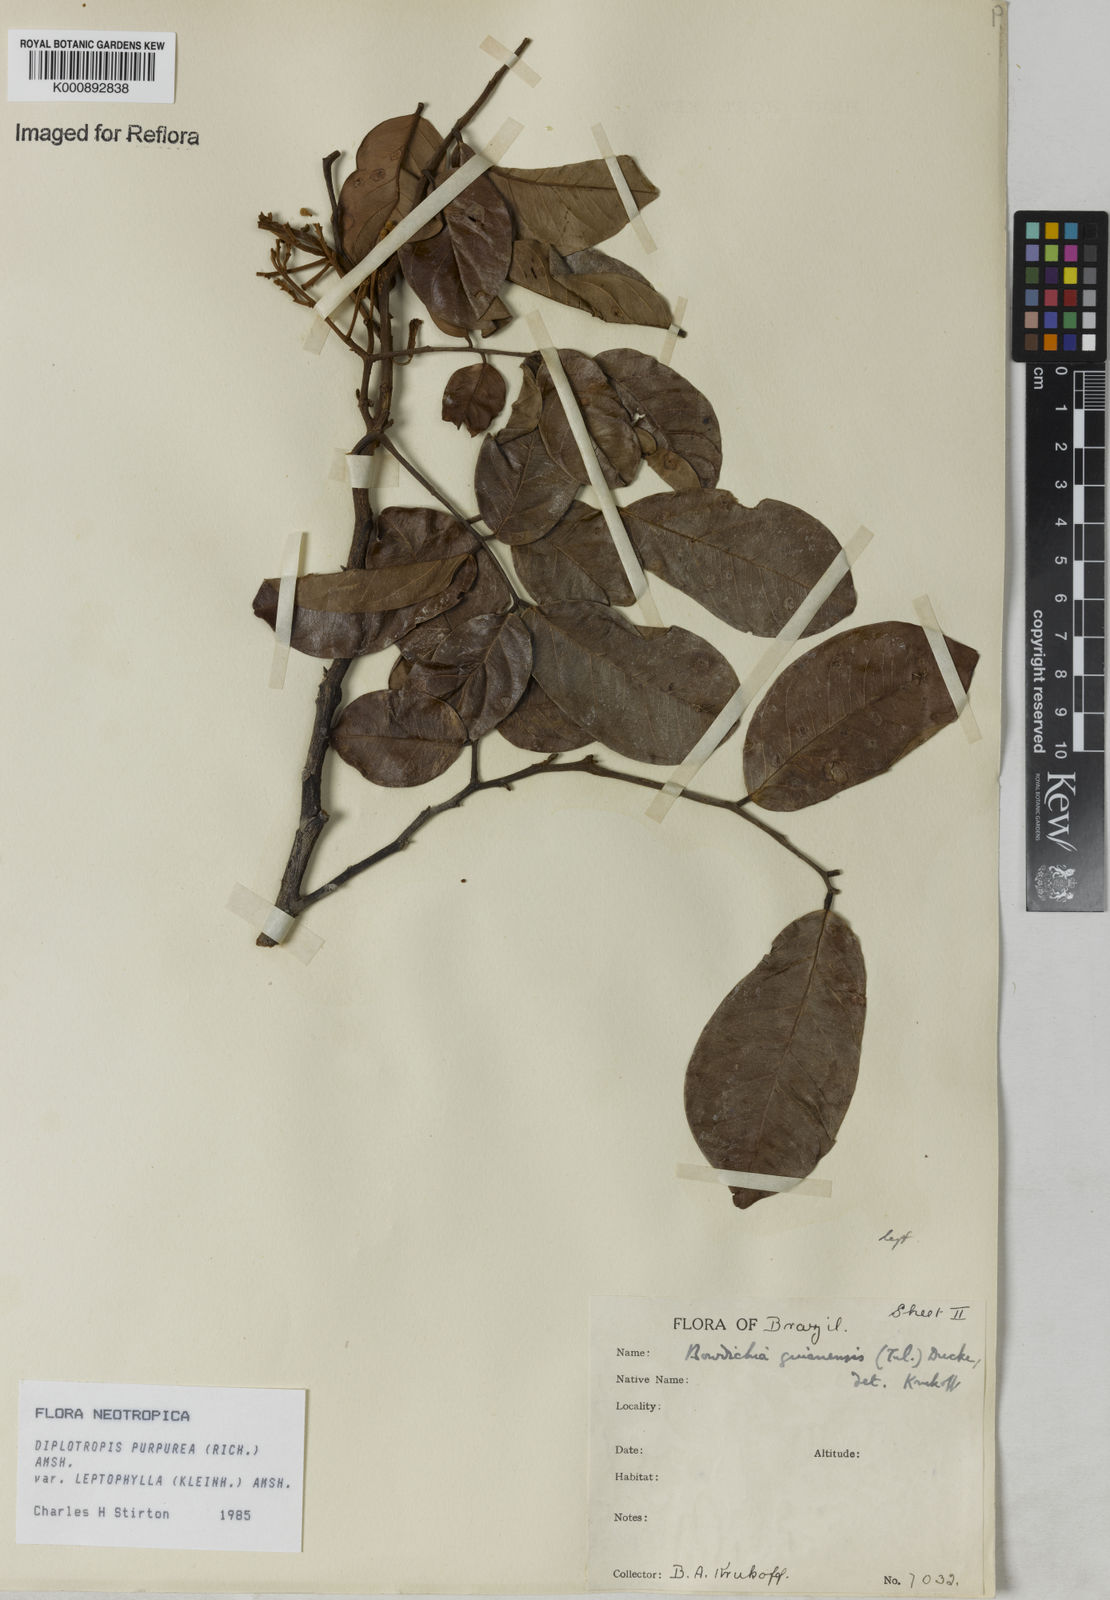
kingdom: Plantae
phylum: Tracheophyta
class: Magnoliopsida
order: Fabales
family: Fabaceae
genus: Diplotropis
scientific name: Diplotropis purpurea
